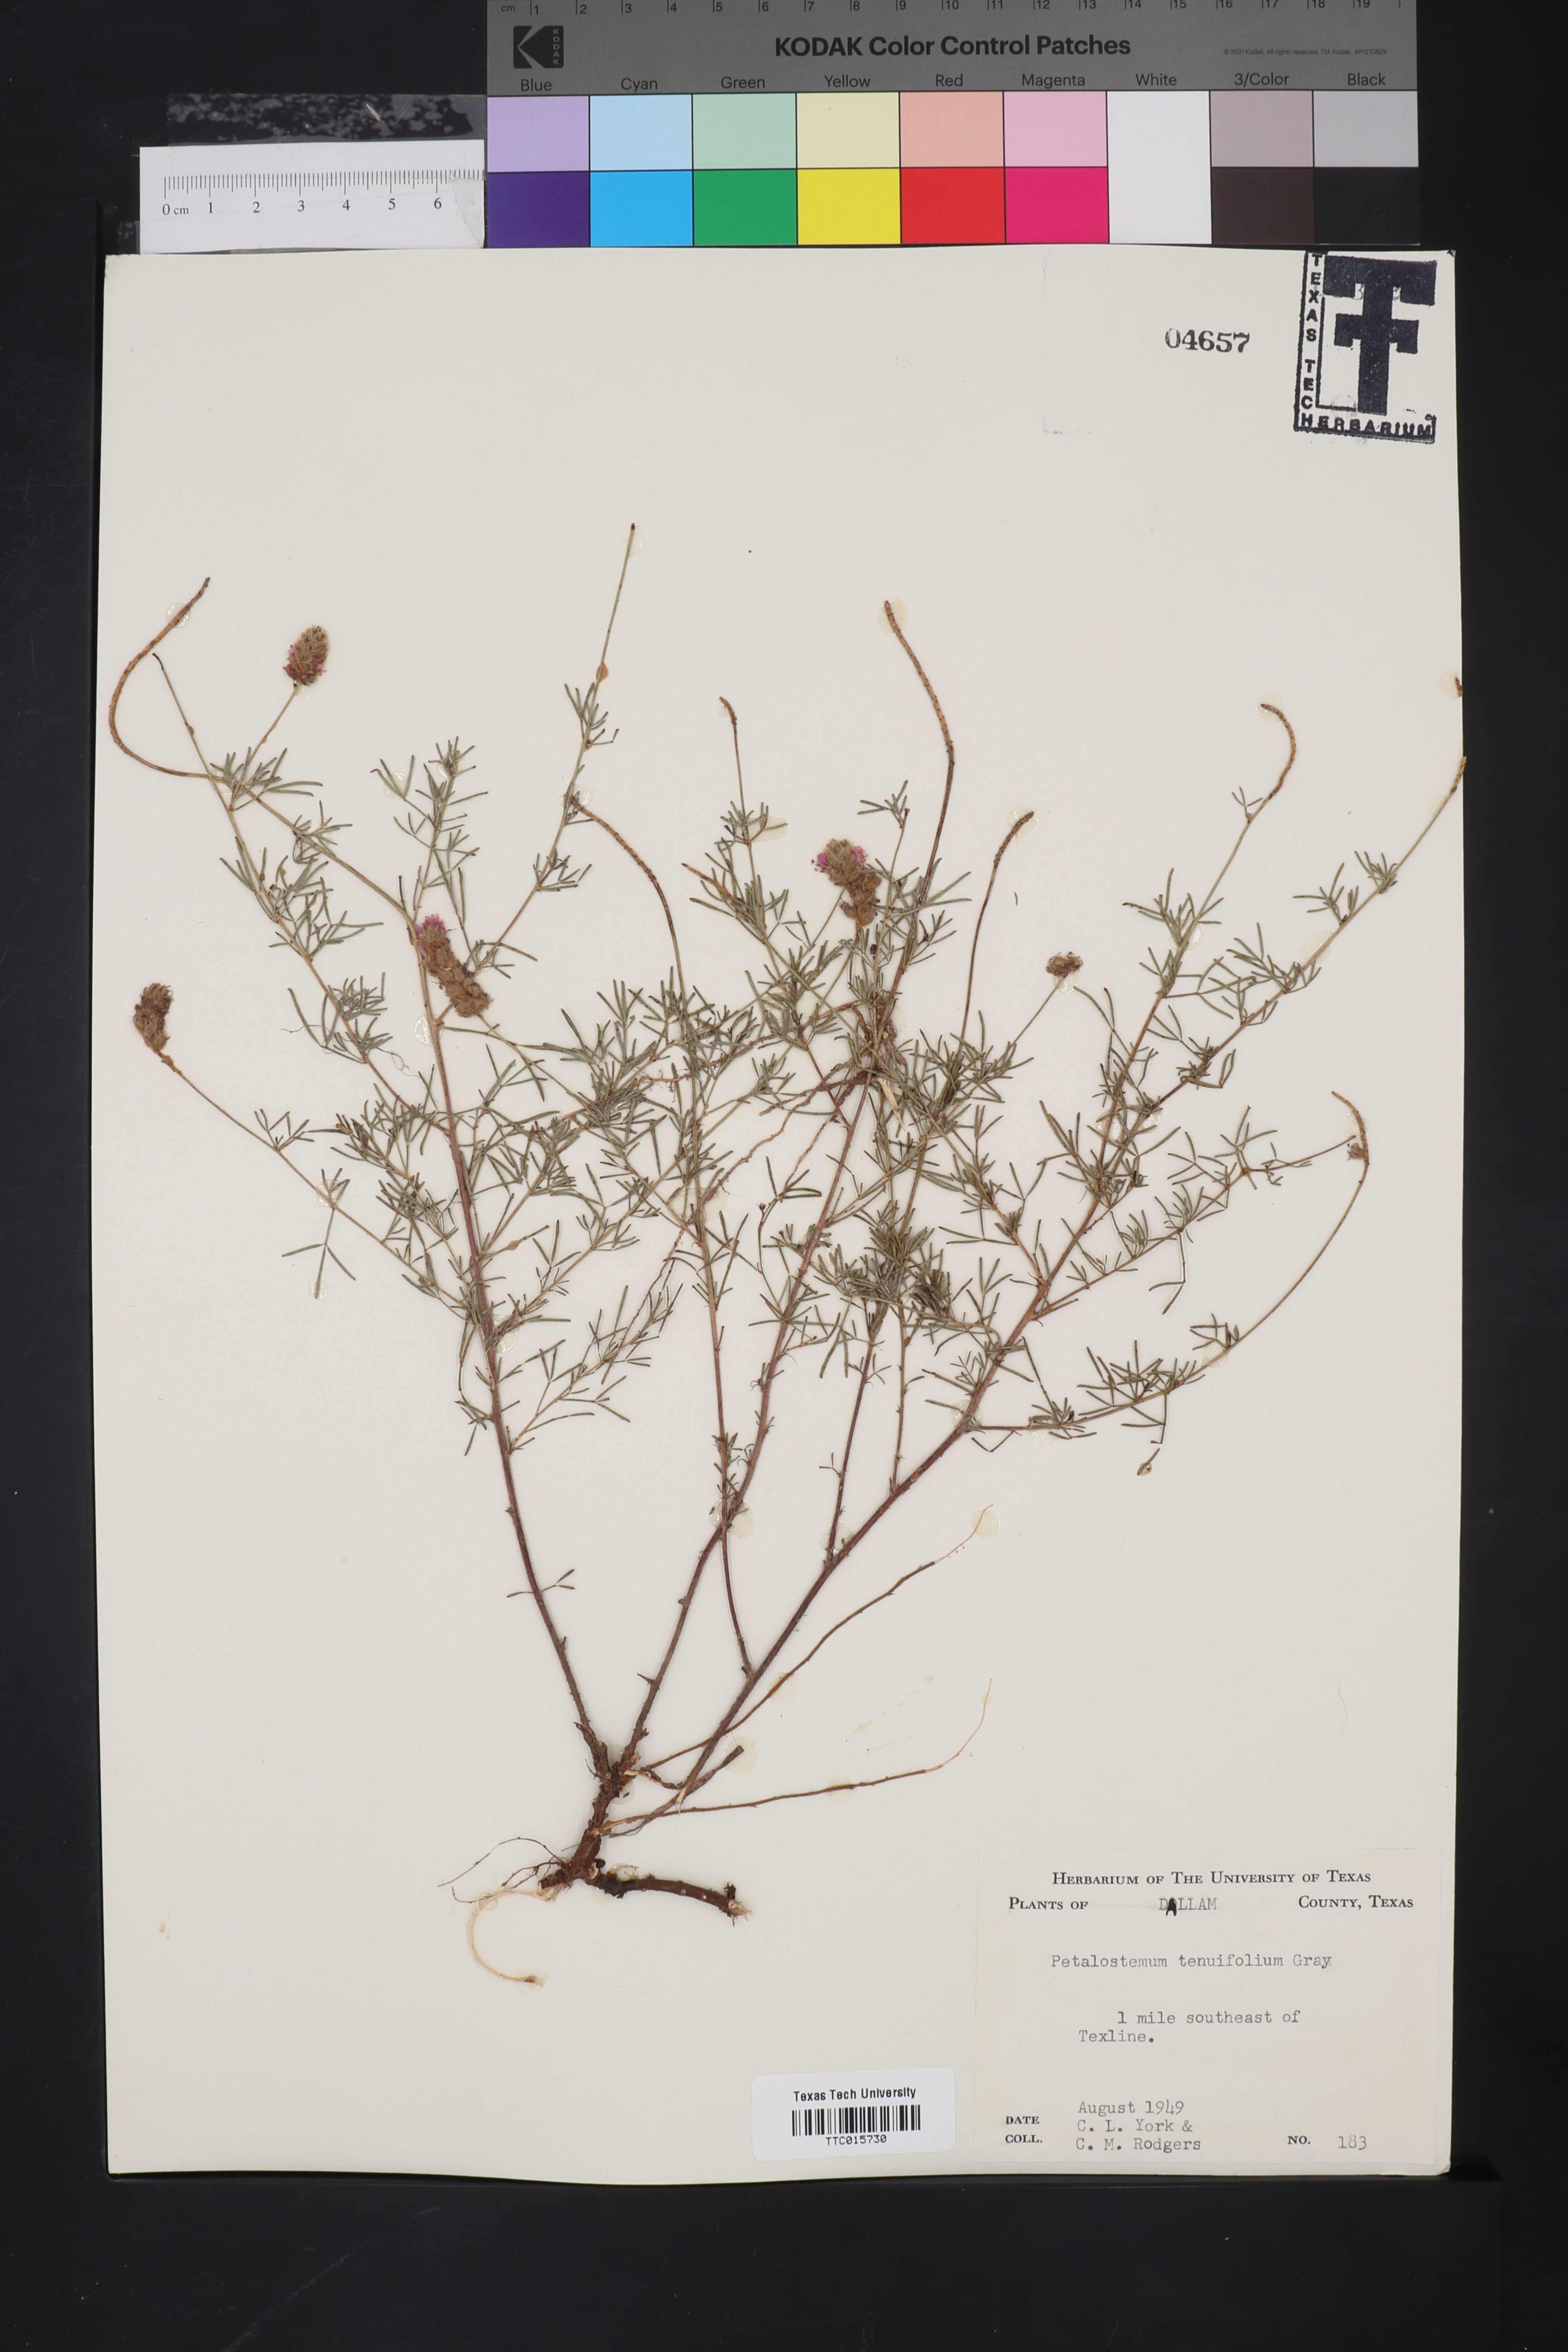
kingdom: Plantae
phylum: Tracheophyta
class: Magnoliopsida
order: Fabales
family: Fabaceae
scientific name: Fabaceae
